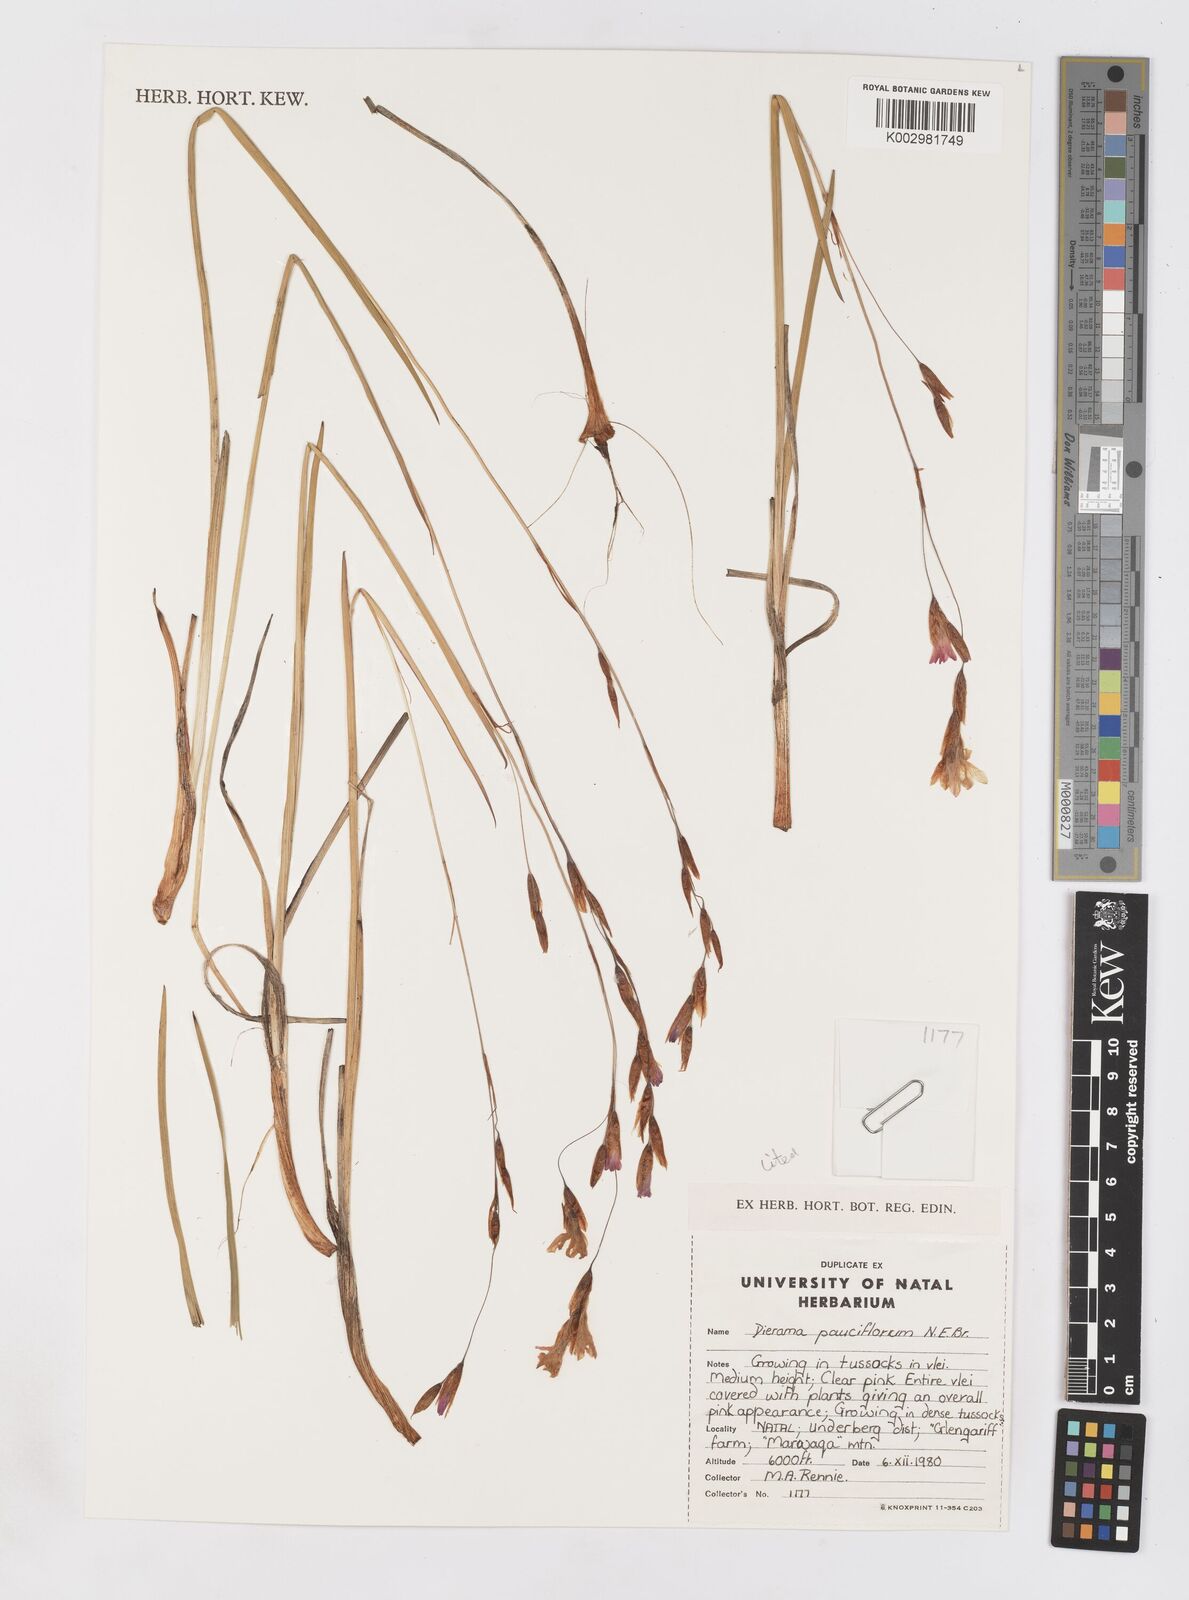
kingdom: Plantae
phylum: Tracheophyta
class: Liliopsida
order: Asparagales
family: Iridaceae
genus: Dierama
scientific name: Dierama pauciflorum
